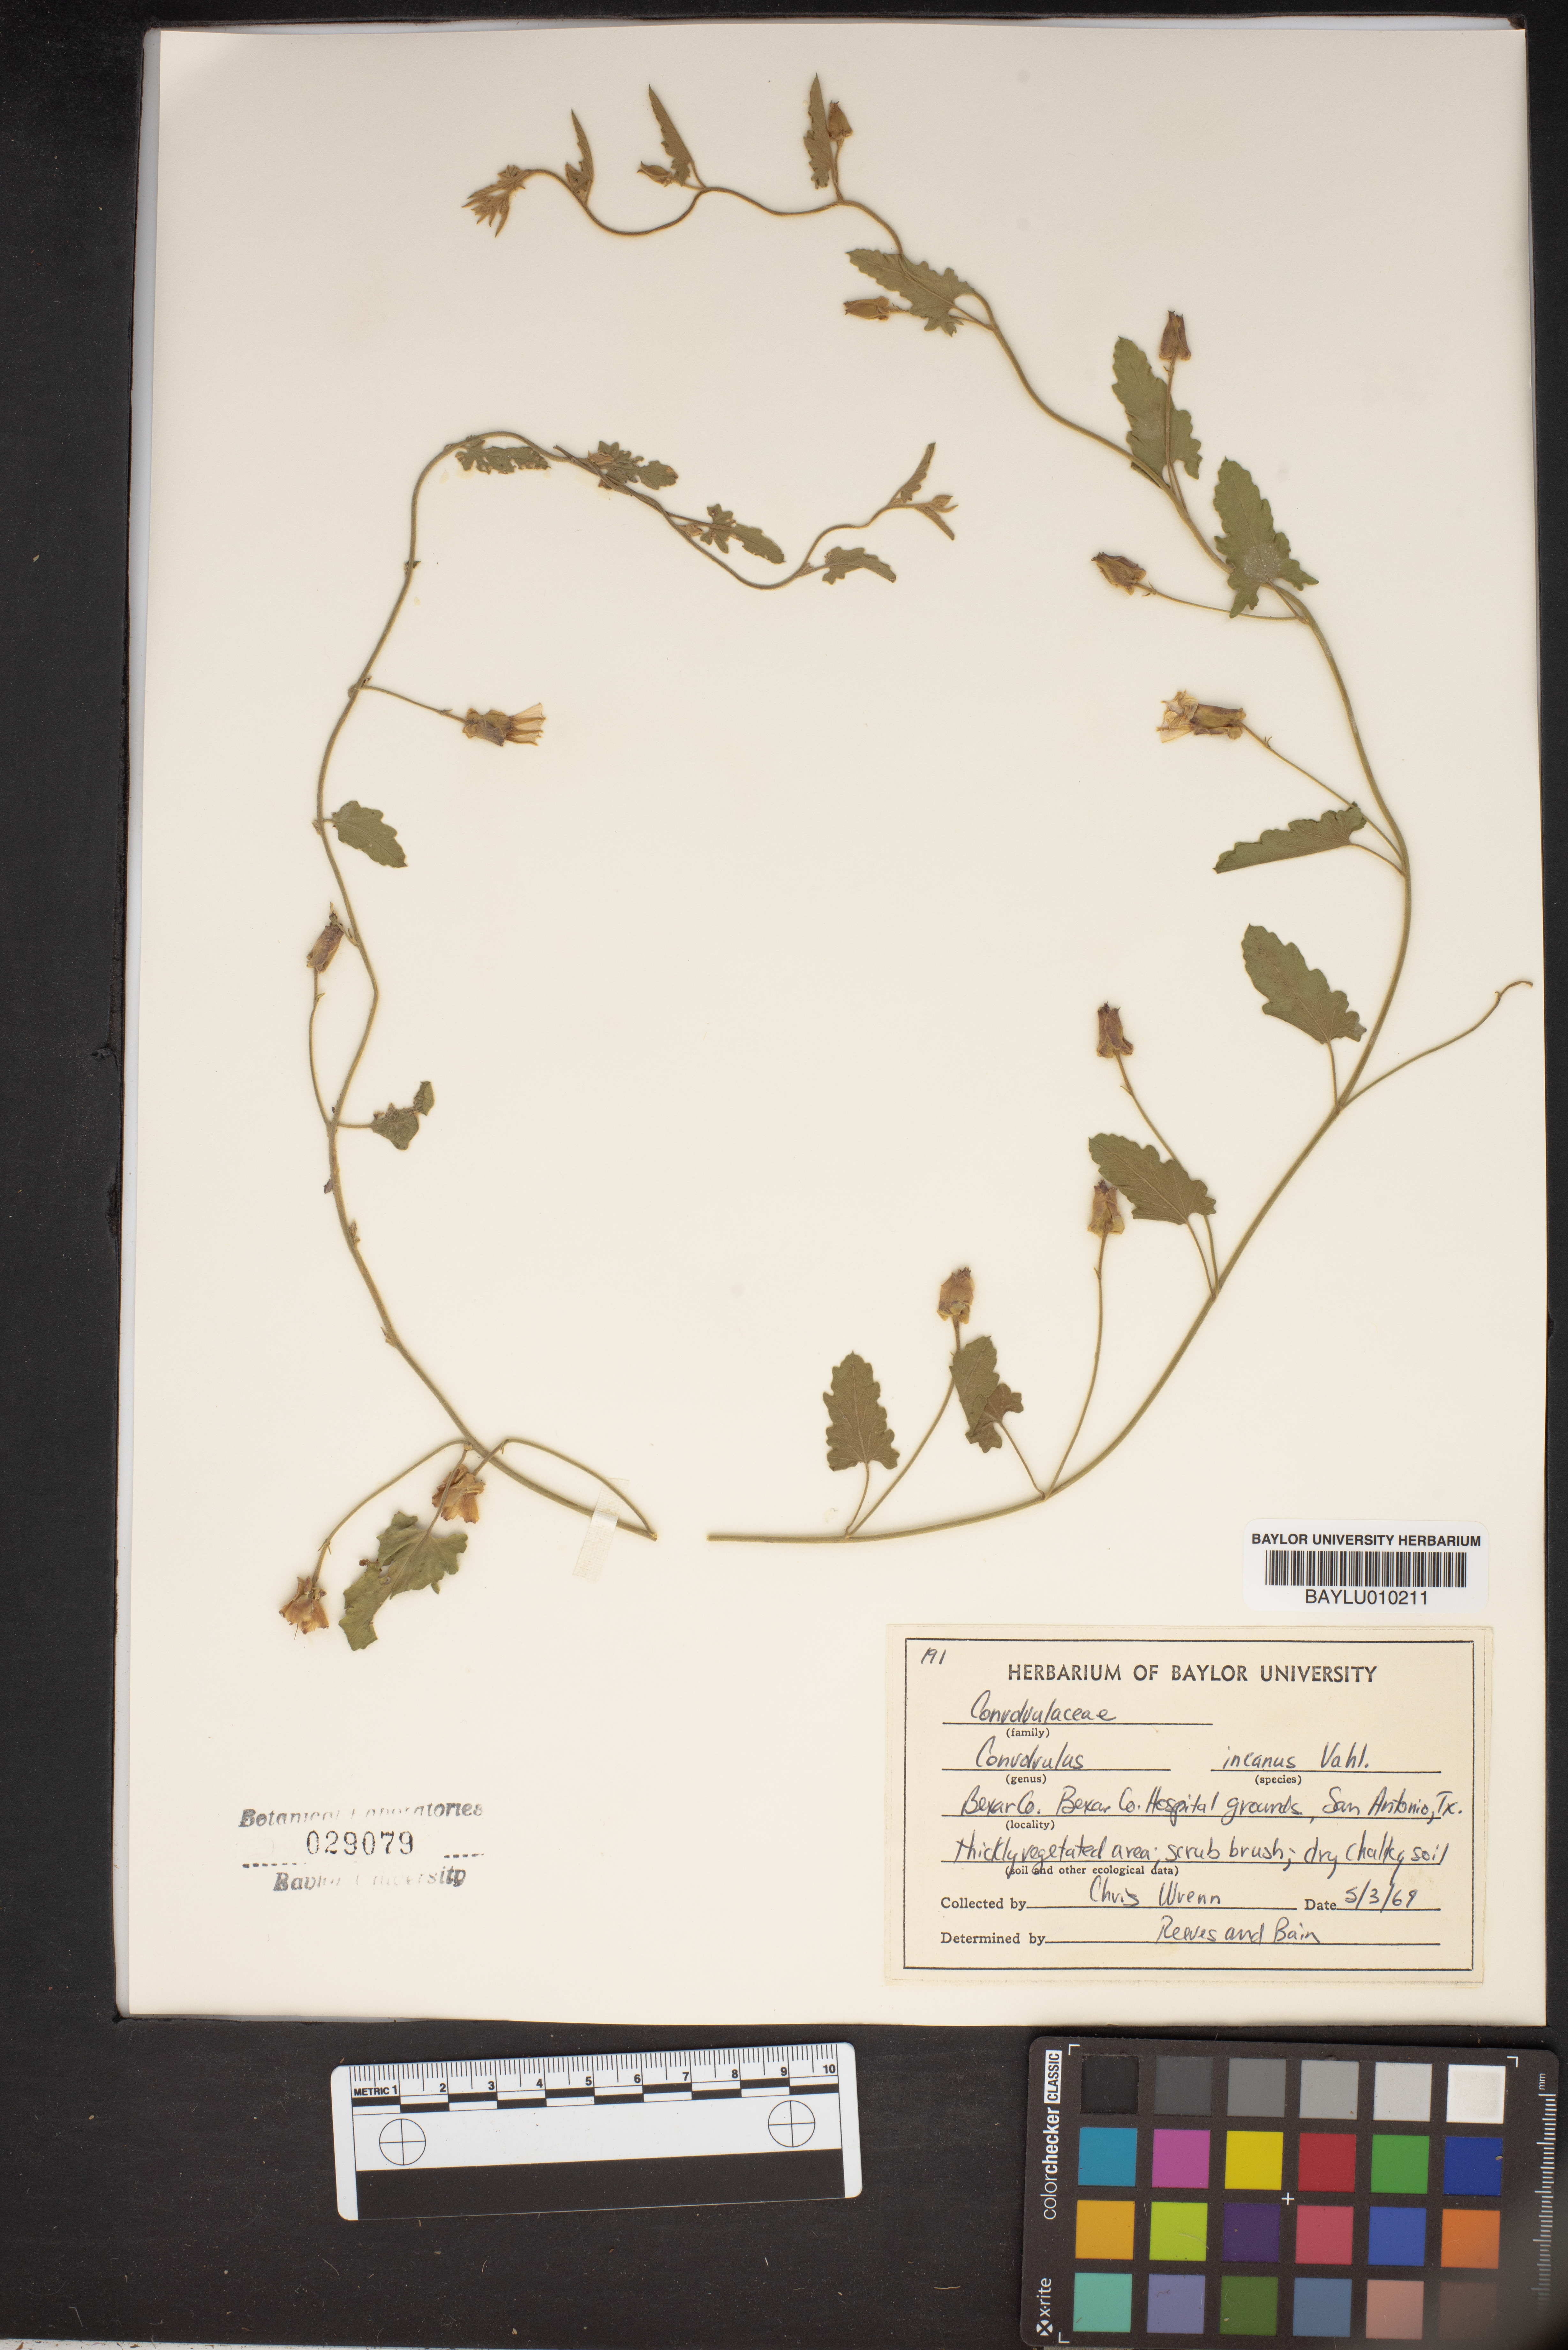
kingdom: Plantae
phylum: Tracheophyta
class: Magnoliopsida
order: Solanales
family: Convolvulaceae
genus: Convolvulus
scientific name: Convolvulus hermanniae
